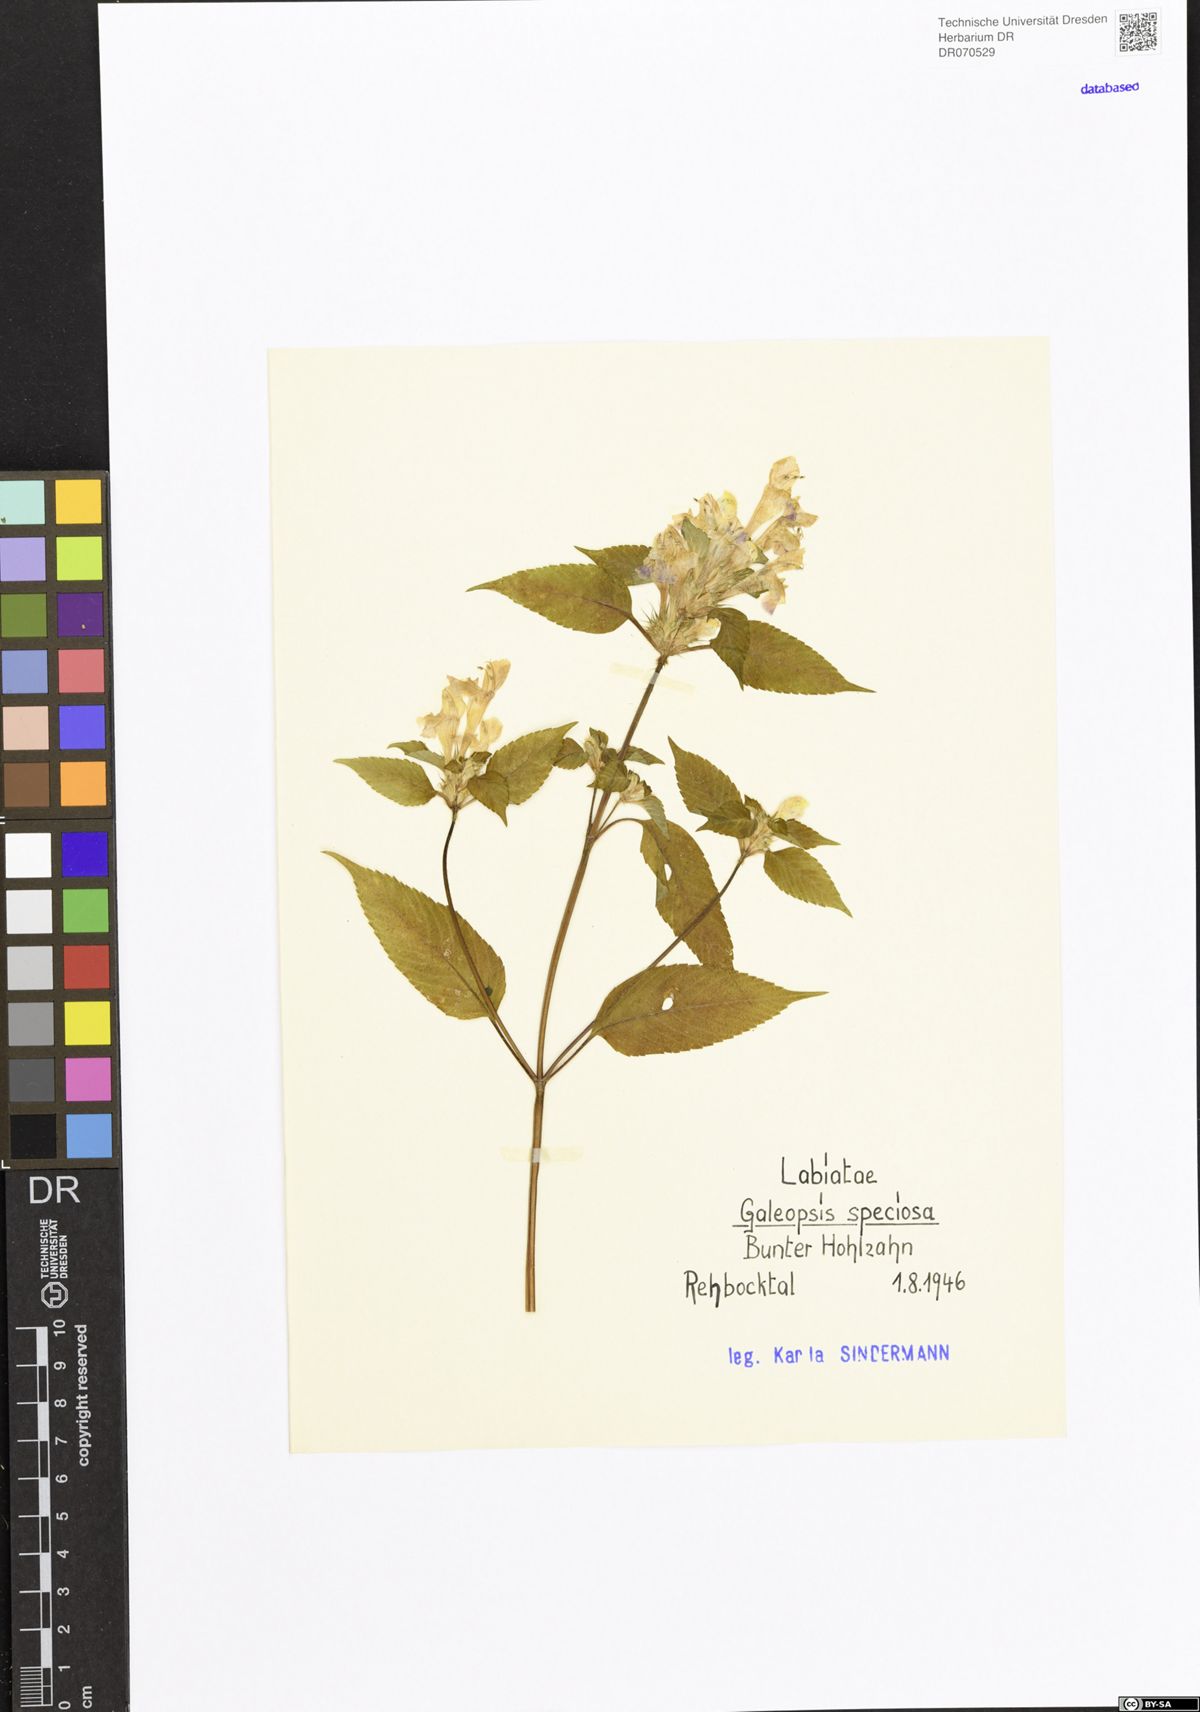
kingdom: Plantae
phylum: Tracheophyta
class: Magnoliopsida
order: Lamiales
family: Lamiaceae
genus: Galeopsis
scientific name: Galeopsis speciosa
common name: Large-flowered hemp-nettle
